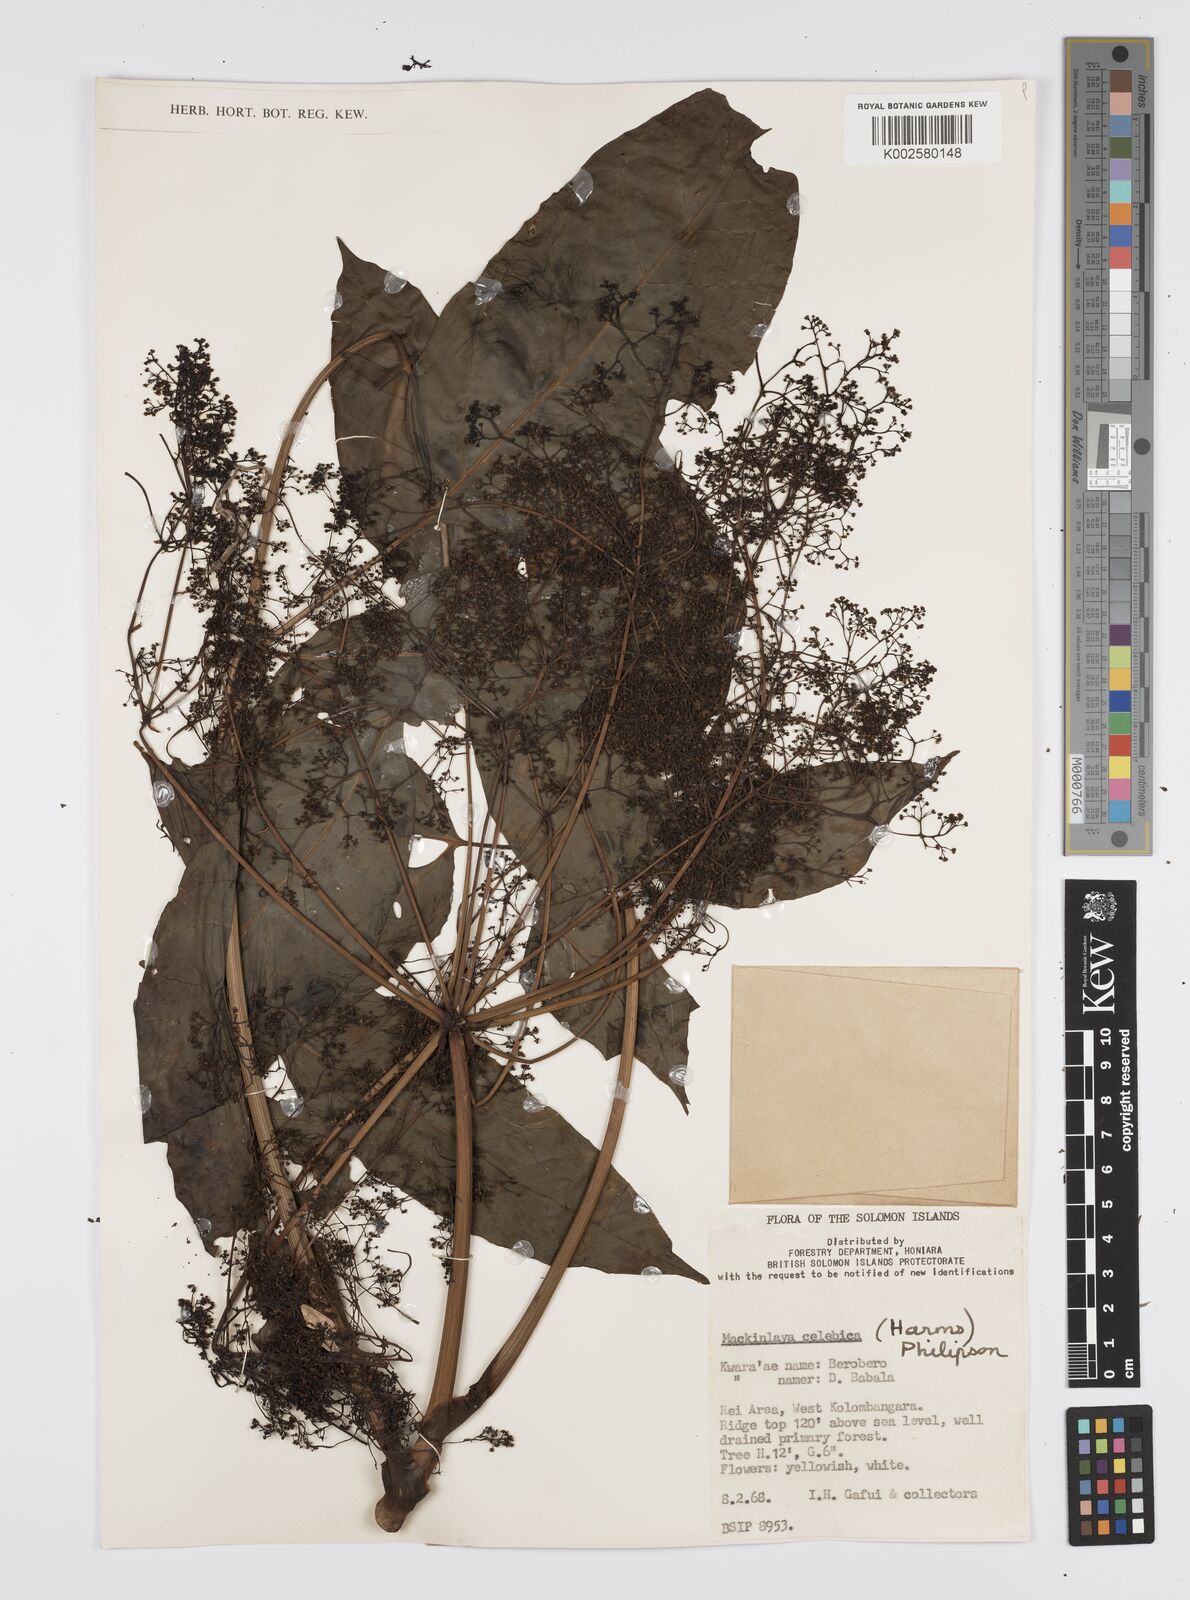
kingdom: Plantae
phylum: Tracheophyta
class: Magnoliopsida
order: Apiales
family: Apiaceae
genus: Mackinlaya
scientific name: Mackinlaya celebica
